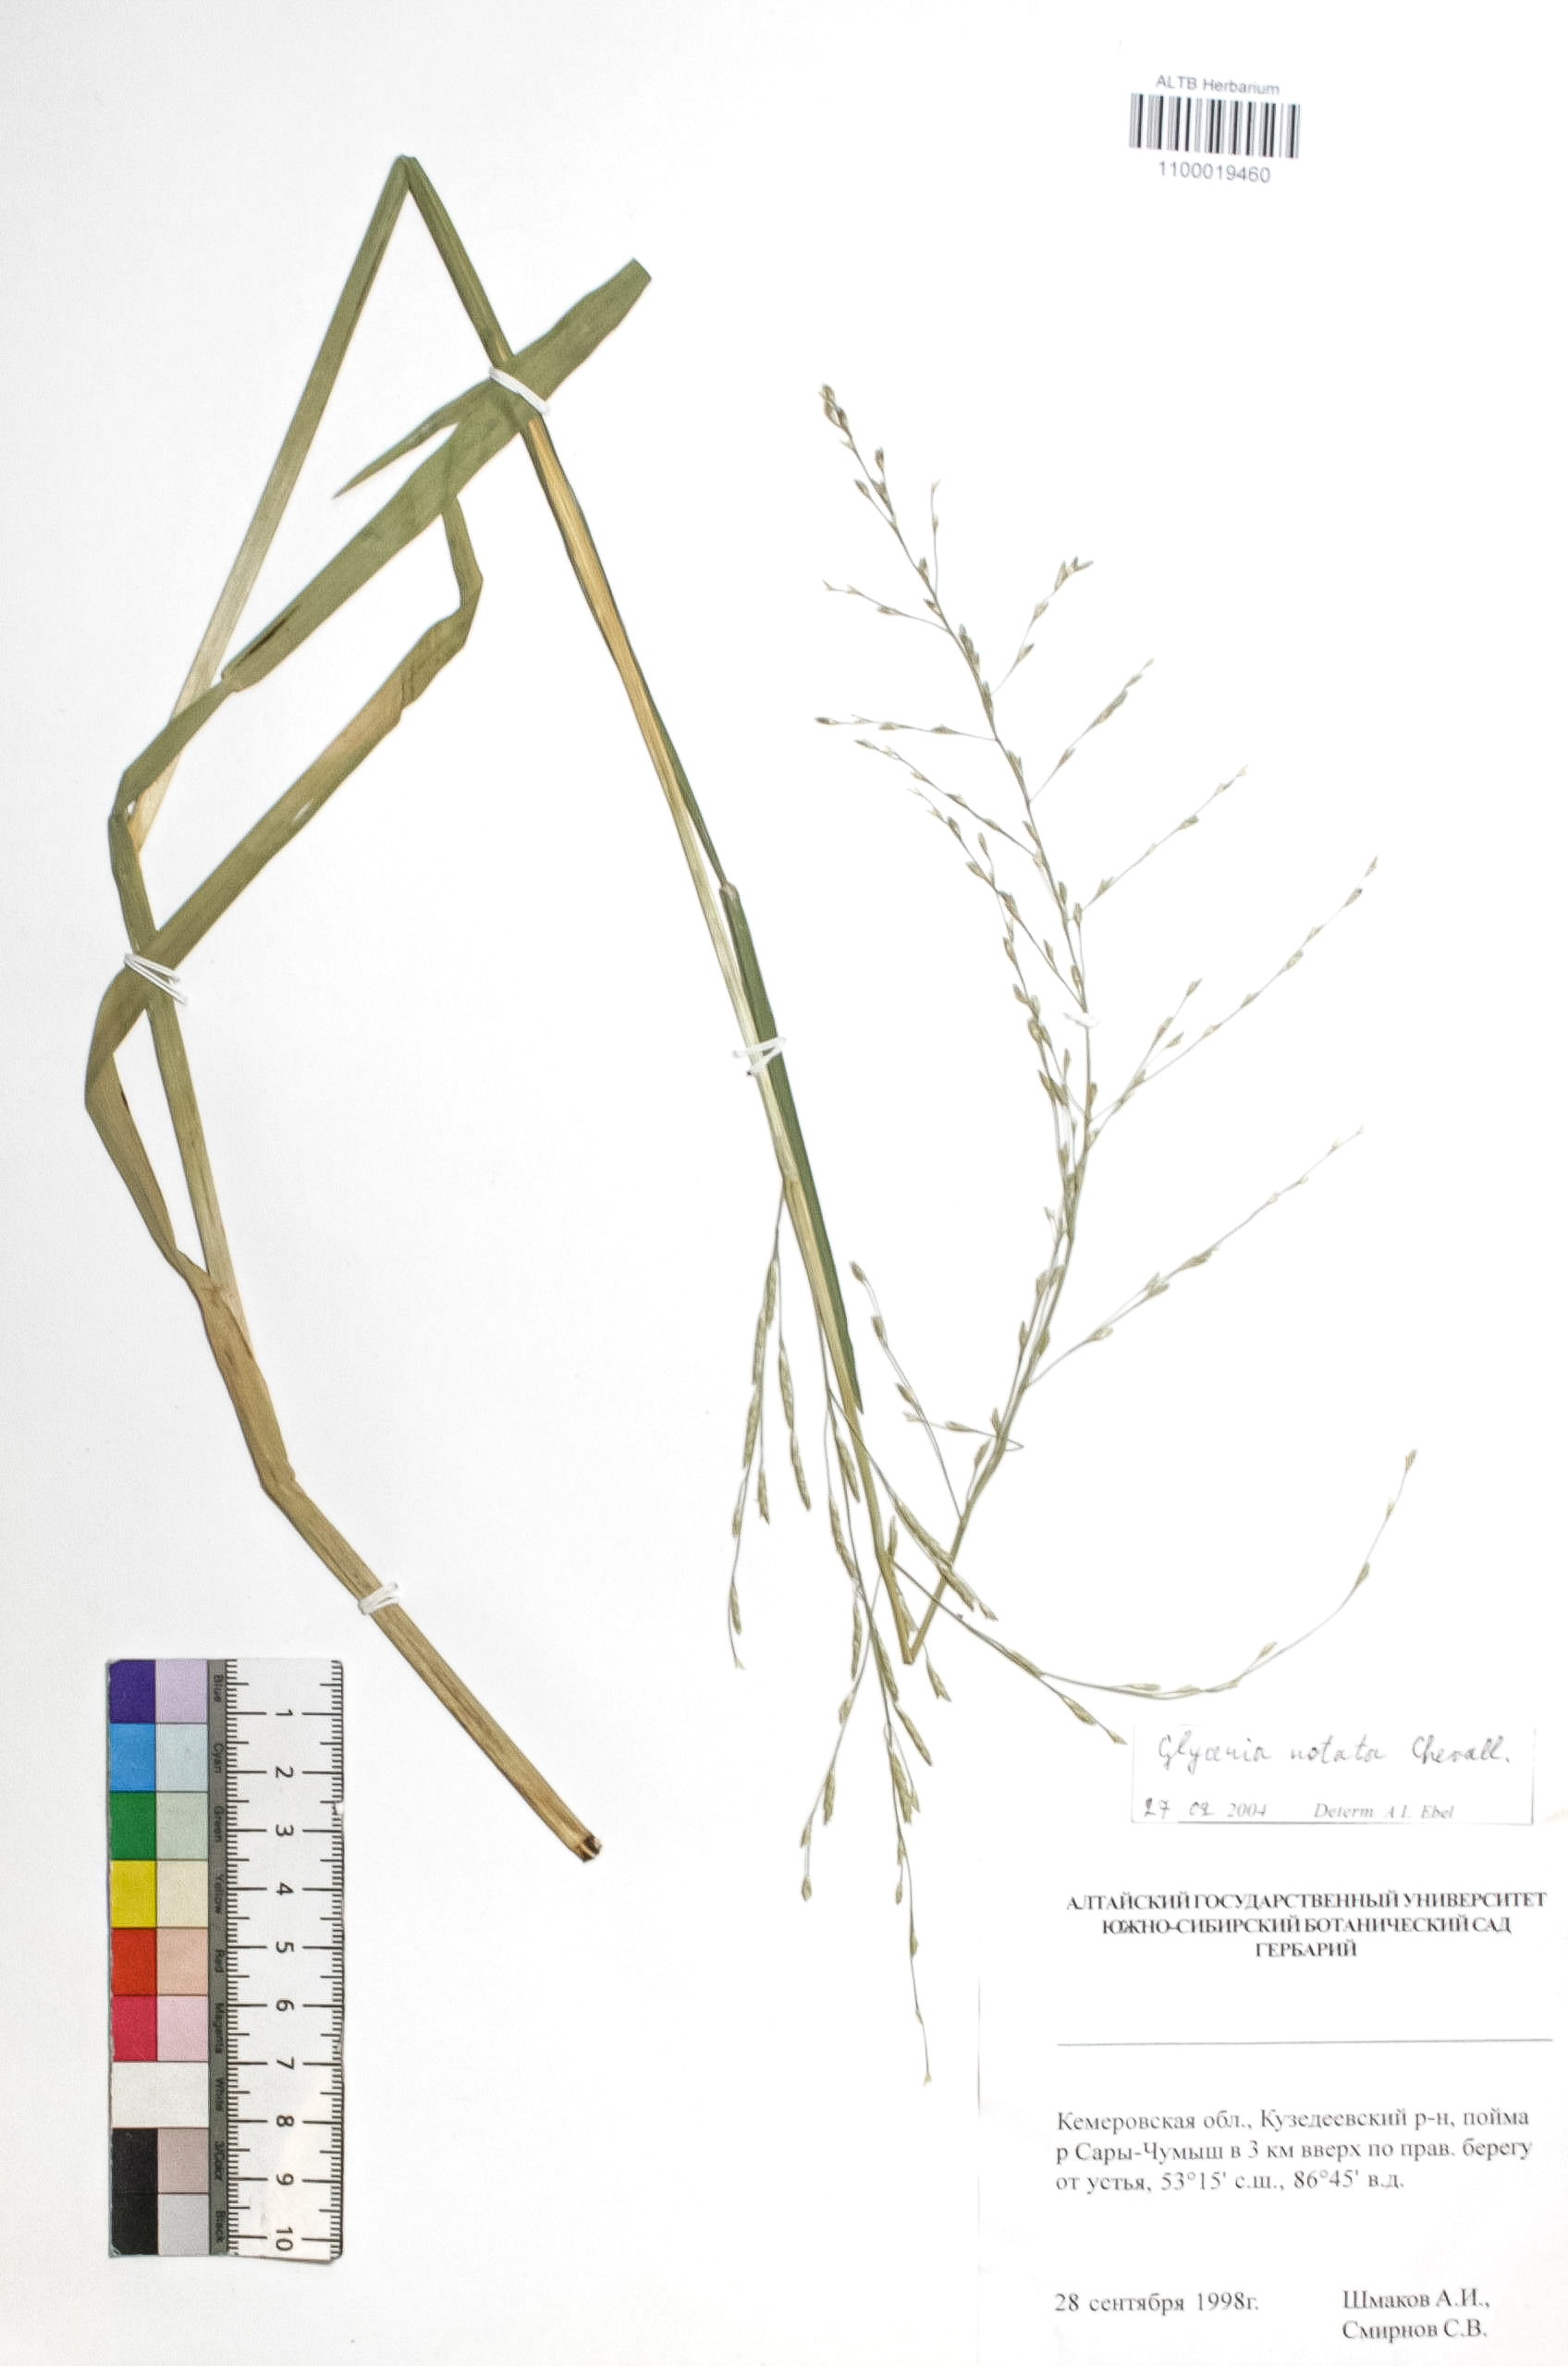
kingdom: Plantae
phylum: Tracheophyta
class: Liliopsida
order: Poales
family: Poaceae
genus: Glyceria
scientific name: Glyceria notata
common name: Plicate sweet-grass
